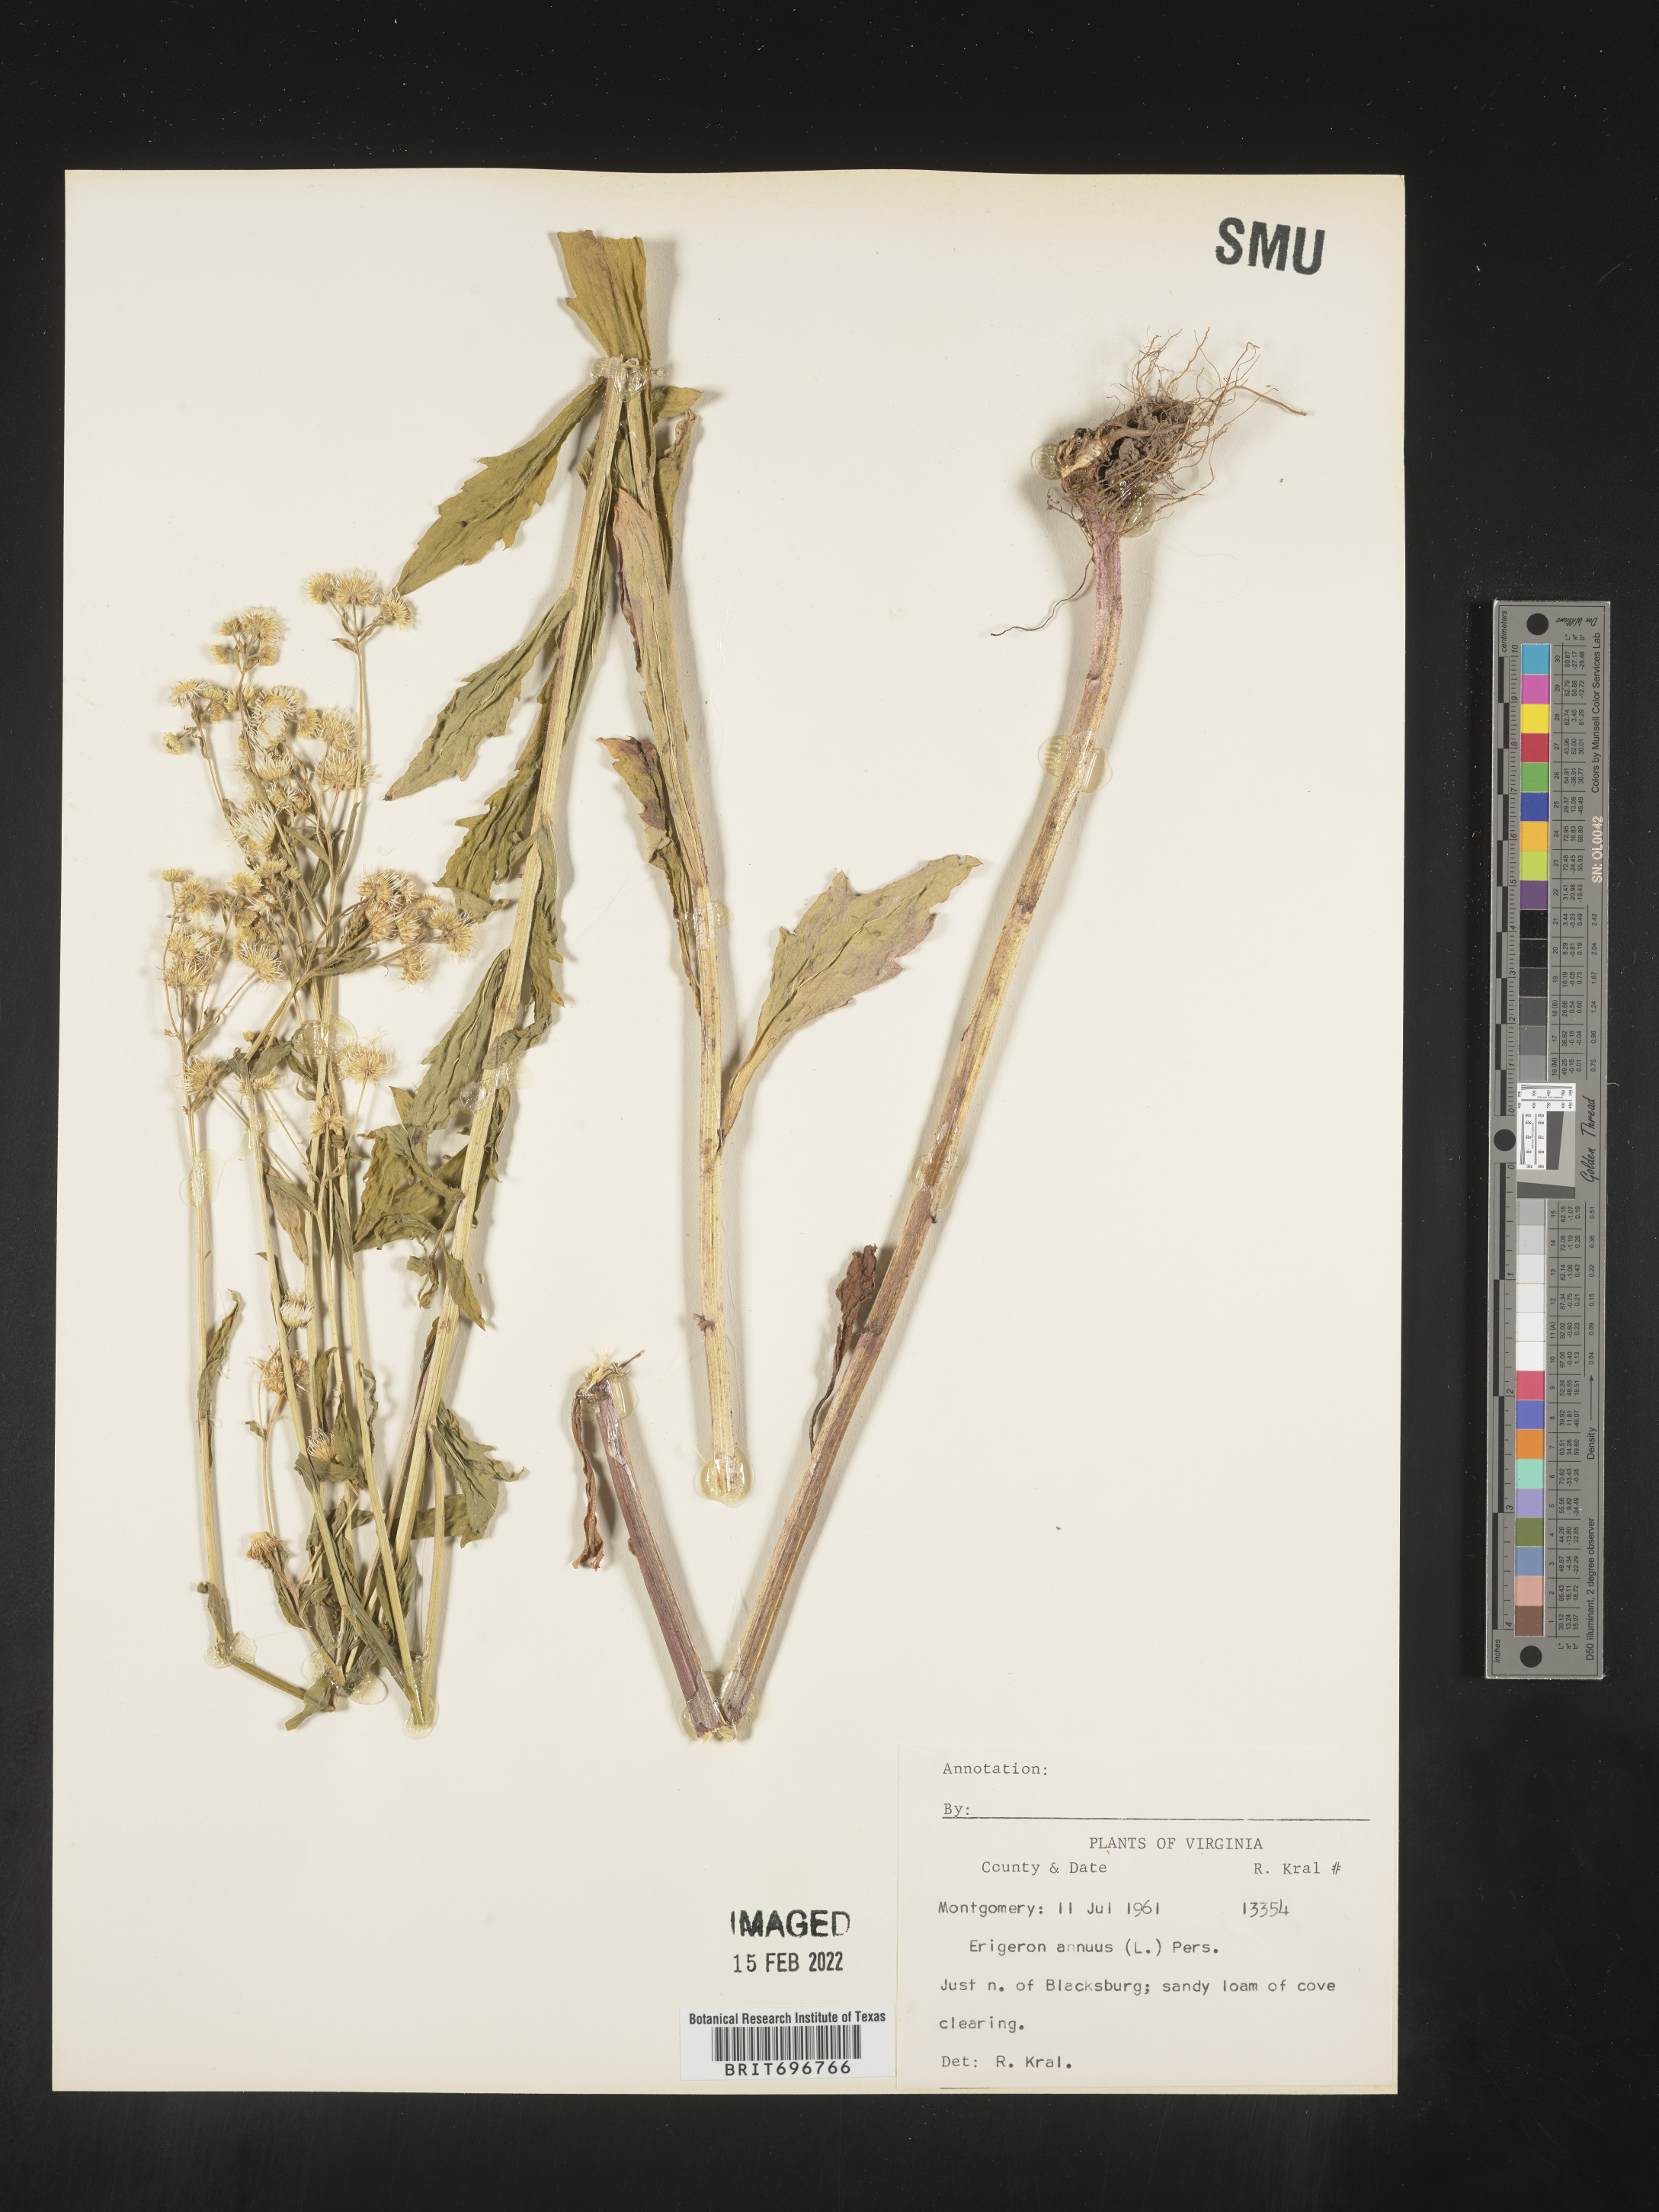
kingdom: Plantae
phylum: Tracheophyta
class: Magnoliopsida
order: Asterales
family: Asteraceae
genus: Erigeron
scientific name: Erigeron annuus
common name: Tall fleabane
